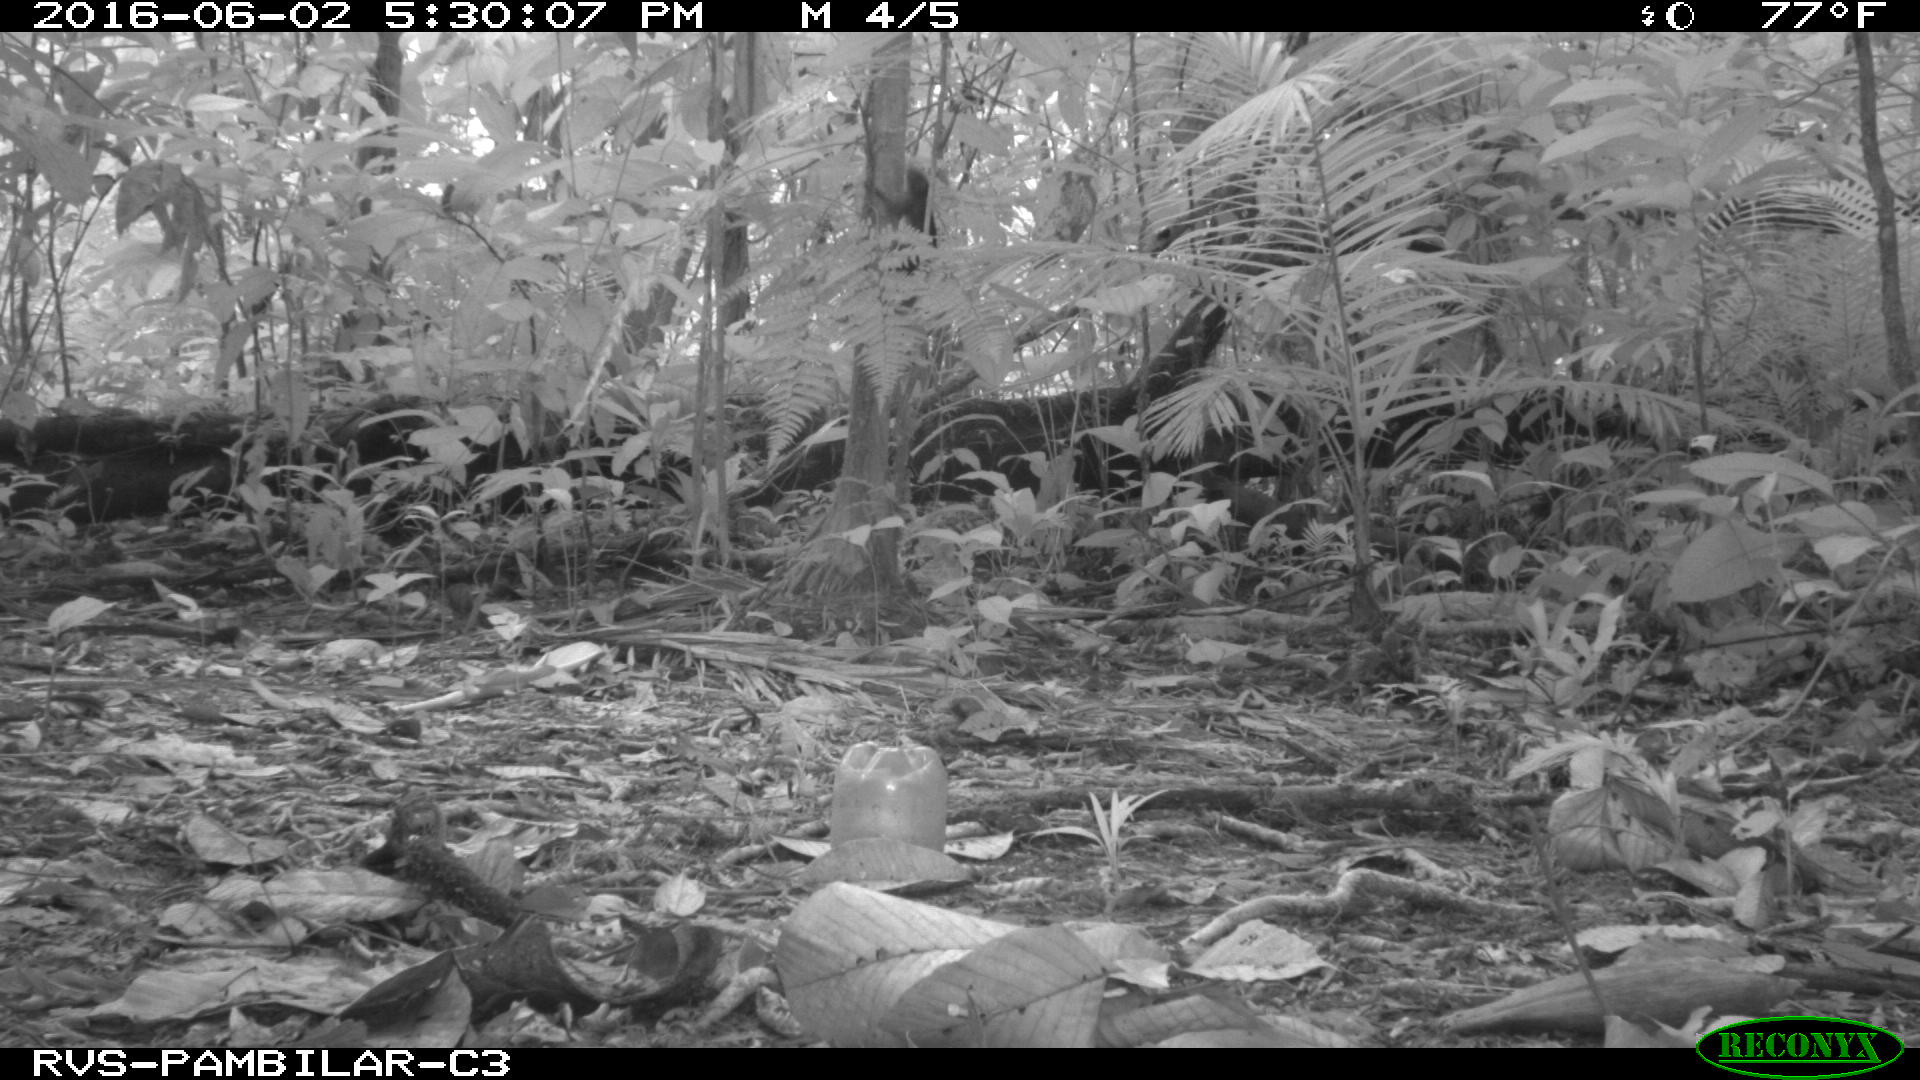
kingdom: Animalia
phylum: Chordata
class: Mammalia
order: Rodentia
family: Sciuridae
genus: Sciurus
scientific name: Sciurus granatensis
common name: Red-tailed squirrel
